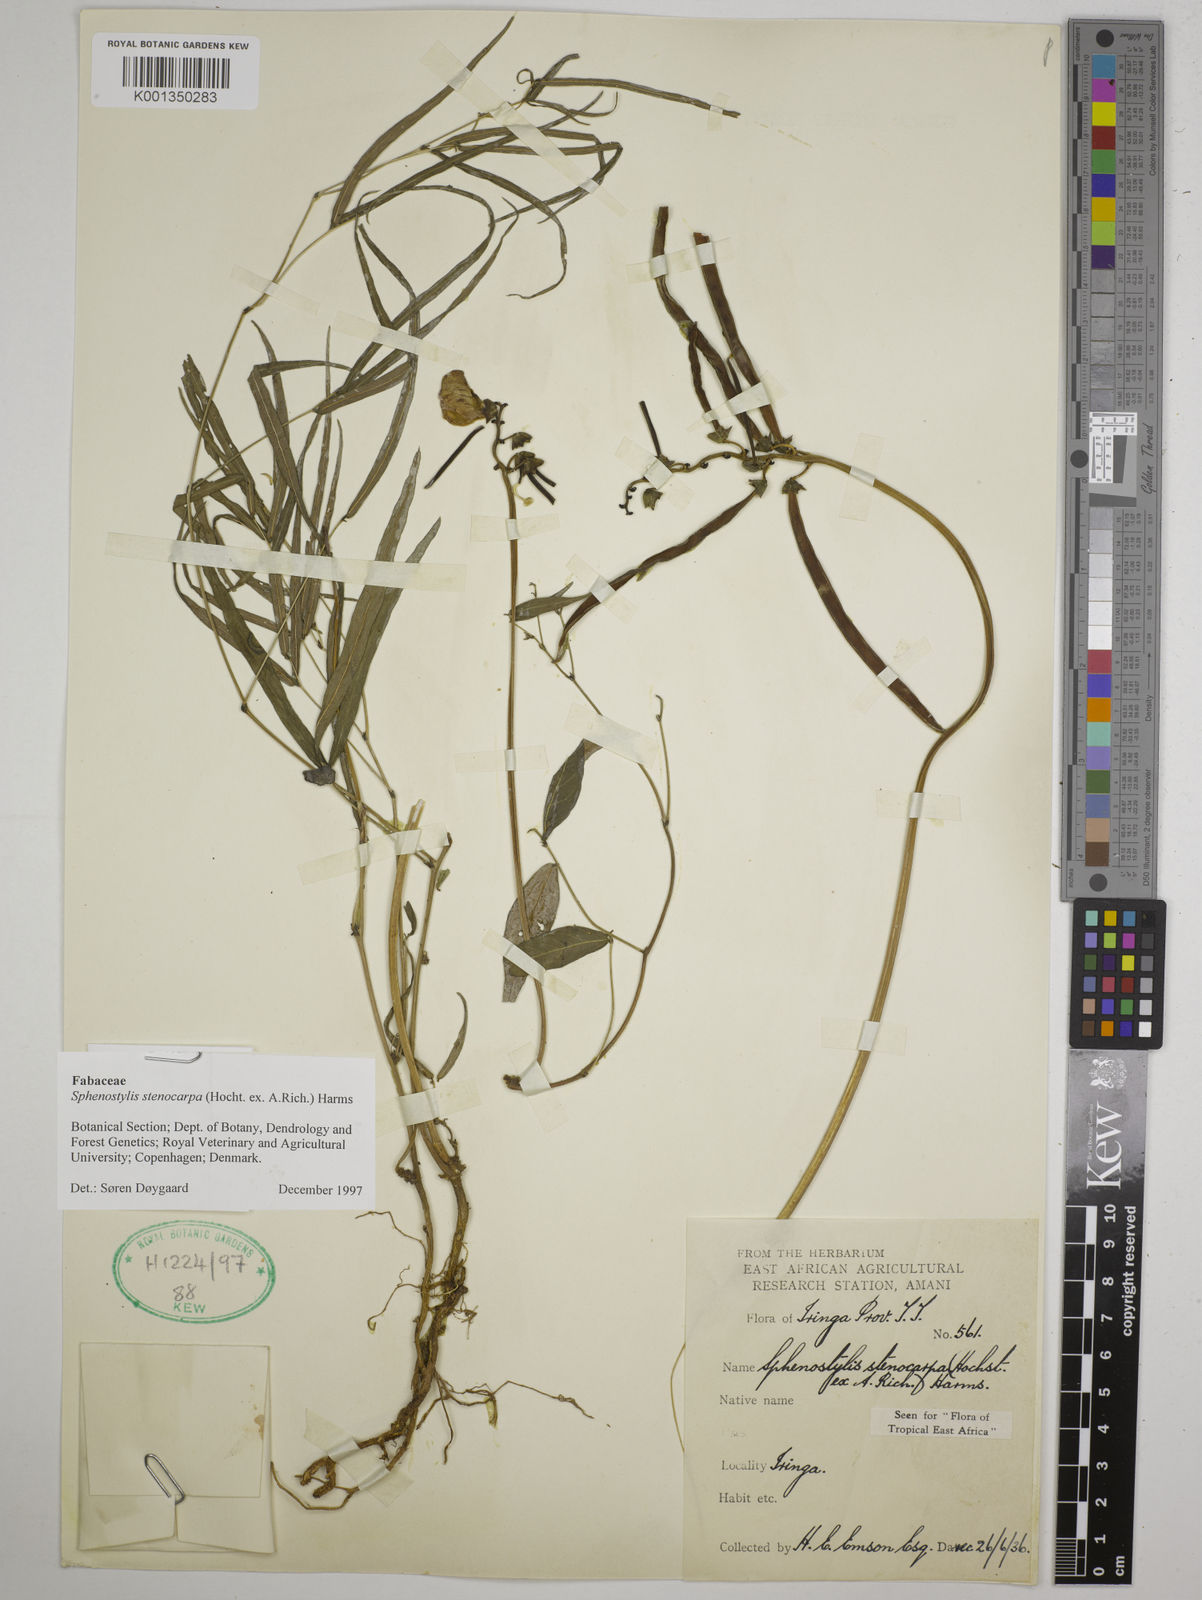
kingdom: Plantae
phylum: Tracheophyta
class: Magnoliopsida
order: Fabales
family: Fabaceae
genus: Sphenostylis
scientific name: Sphenostylis stenocarpa
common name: Yam-pea
